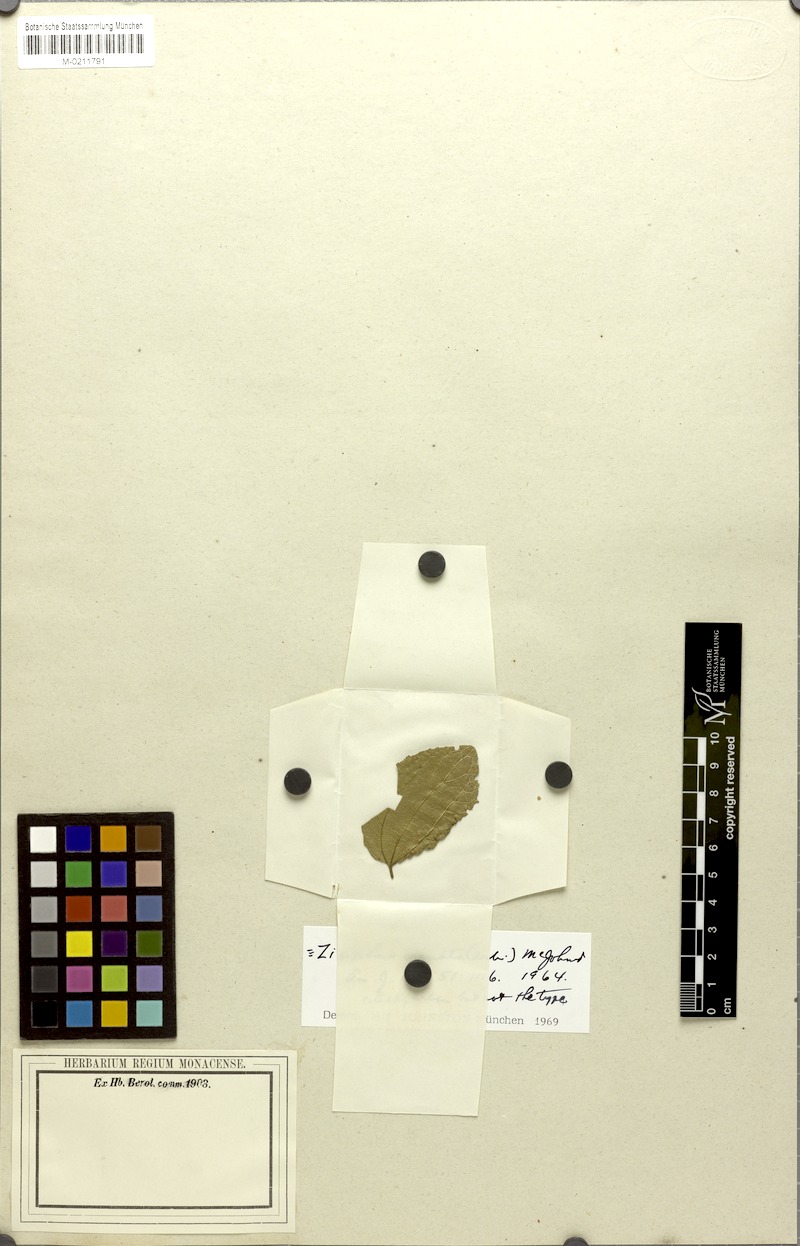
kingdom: Plantae
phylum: Tracheophyta
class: Magnoliopsida
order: Rosales
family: Rhamnaceae
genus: Sarcomphalus
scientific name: Sarcomphalus crenatus
